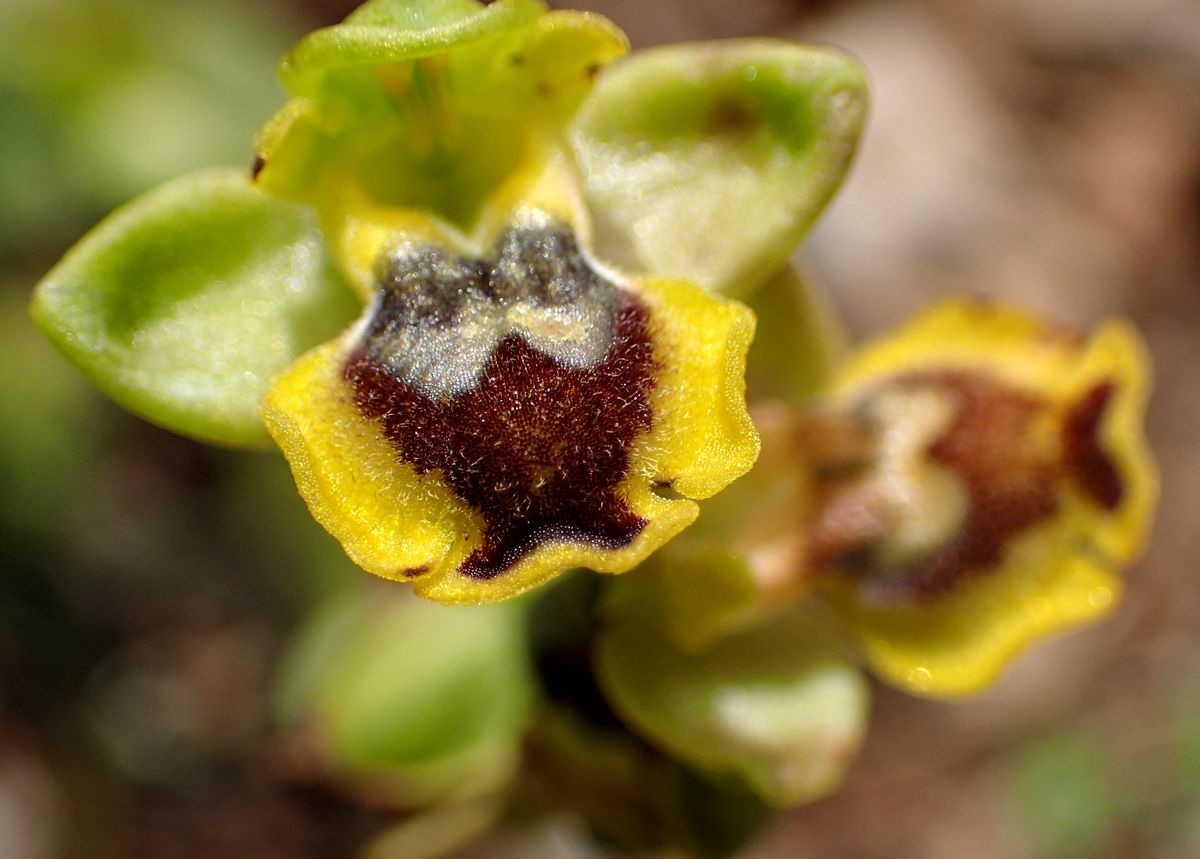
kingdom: Plantae
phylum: Tracheophyta
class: Liliopsida
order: Asparagales
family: Orchidaceae
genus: Ophrys
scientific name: Ophrys lutea
